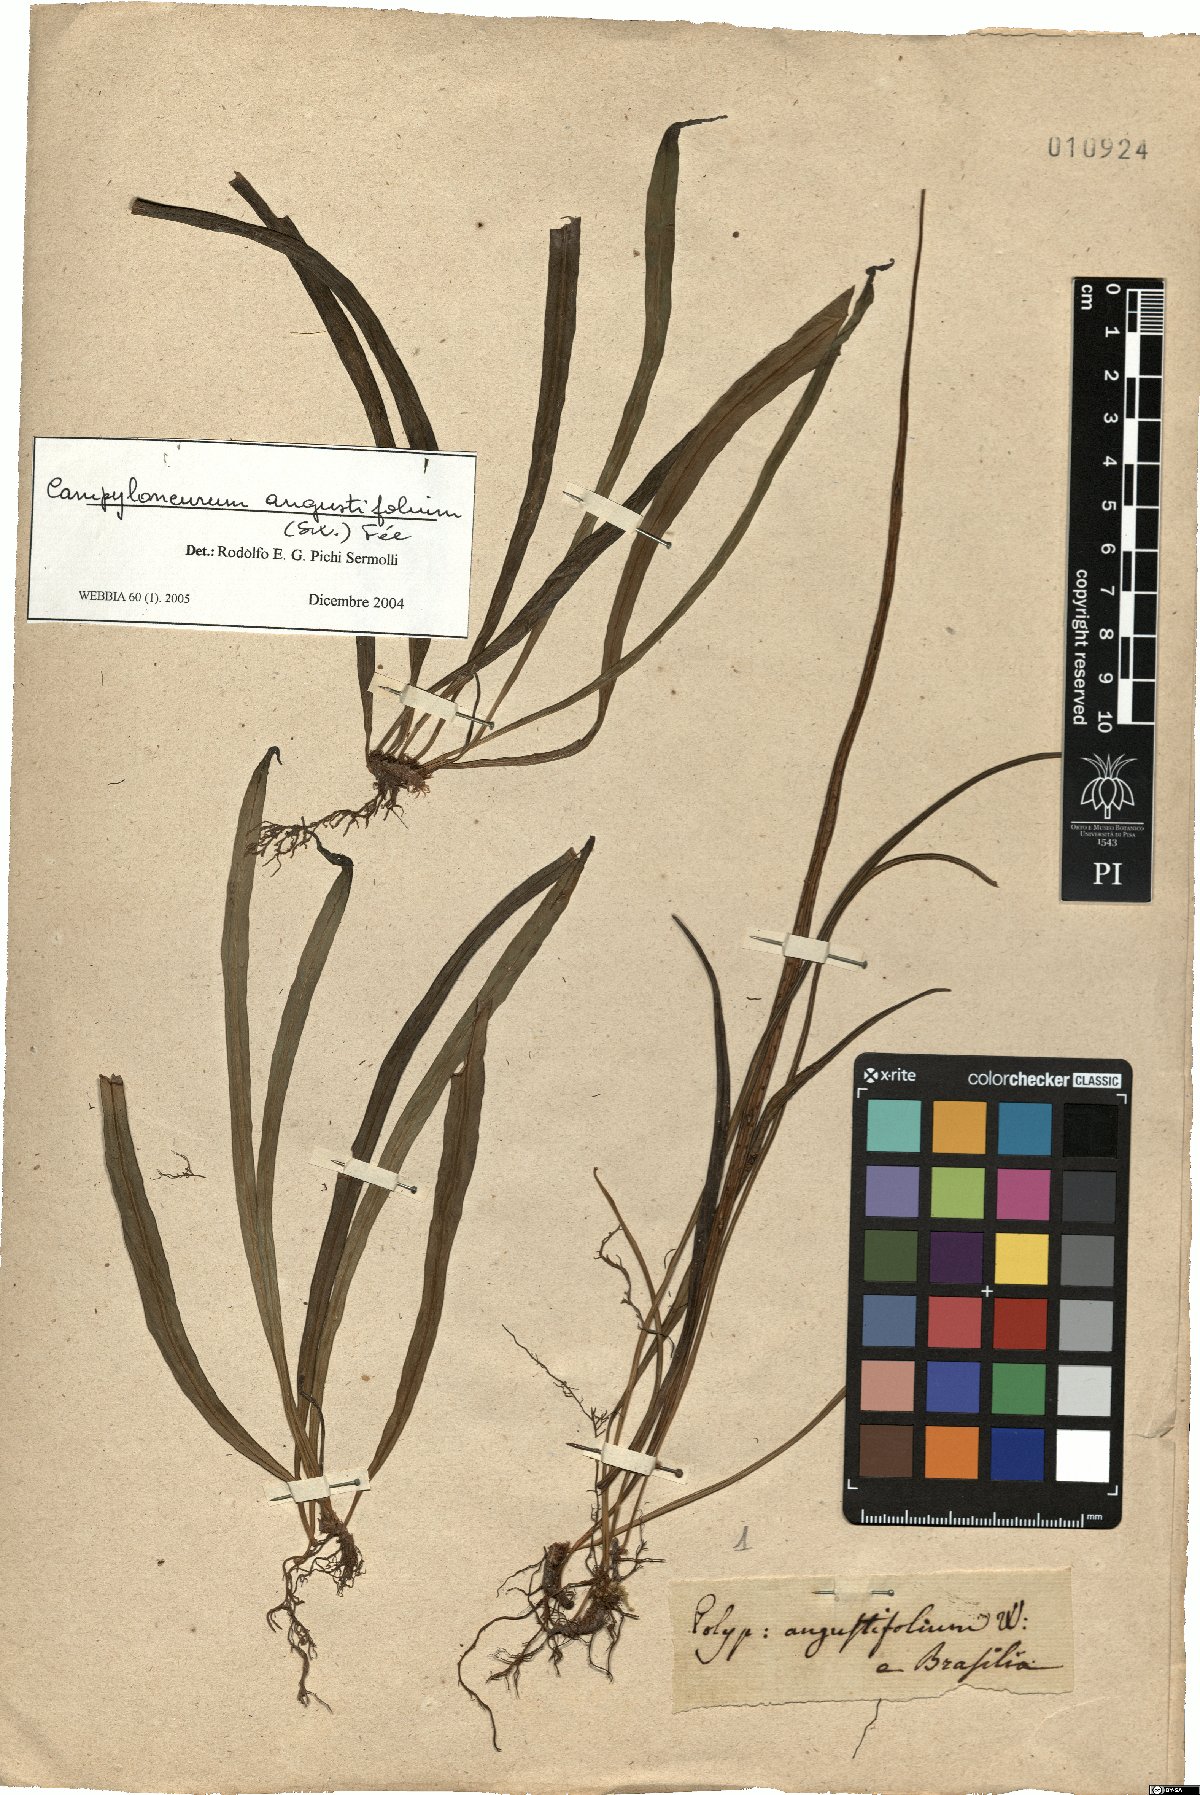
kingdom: Plantae
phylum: Tracheophyta
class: Polypodiopsida
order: Polypodiales
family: Polypodiaceae
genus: Campyloneurum
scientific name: Campyloneurum angustifolium
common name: Narrow-leaf strap fern
